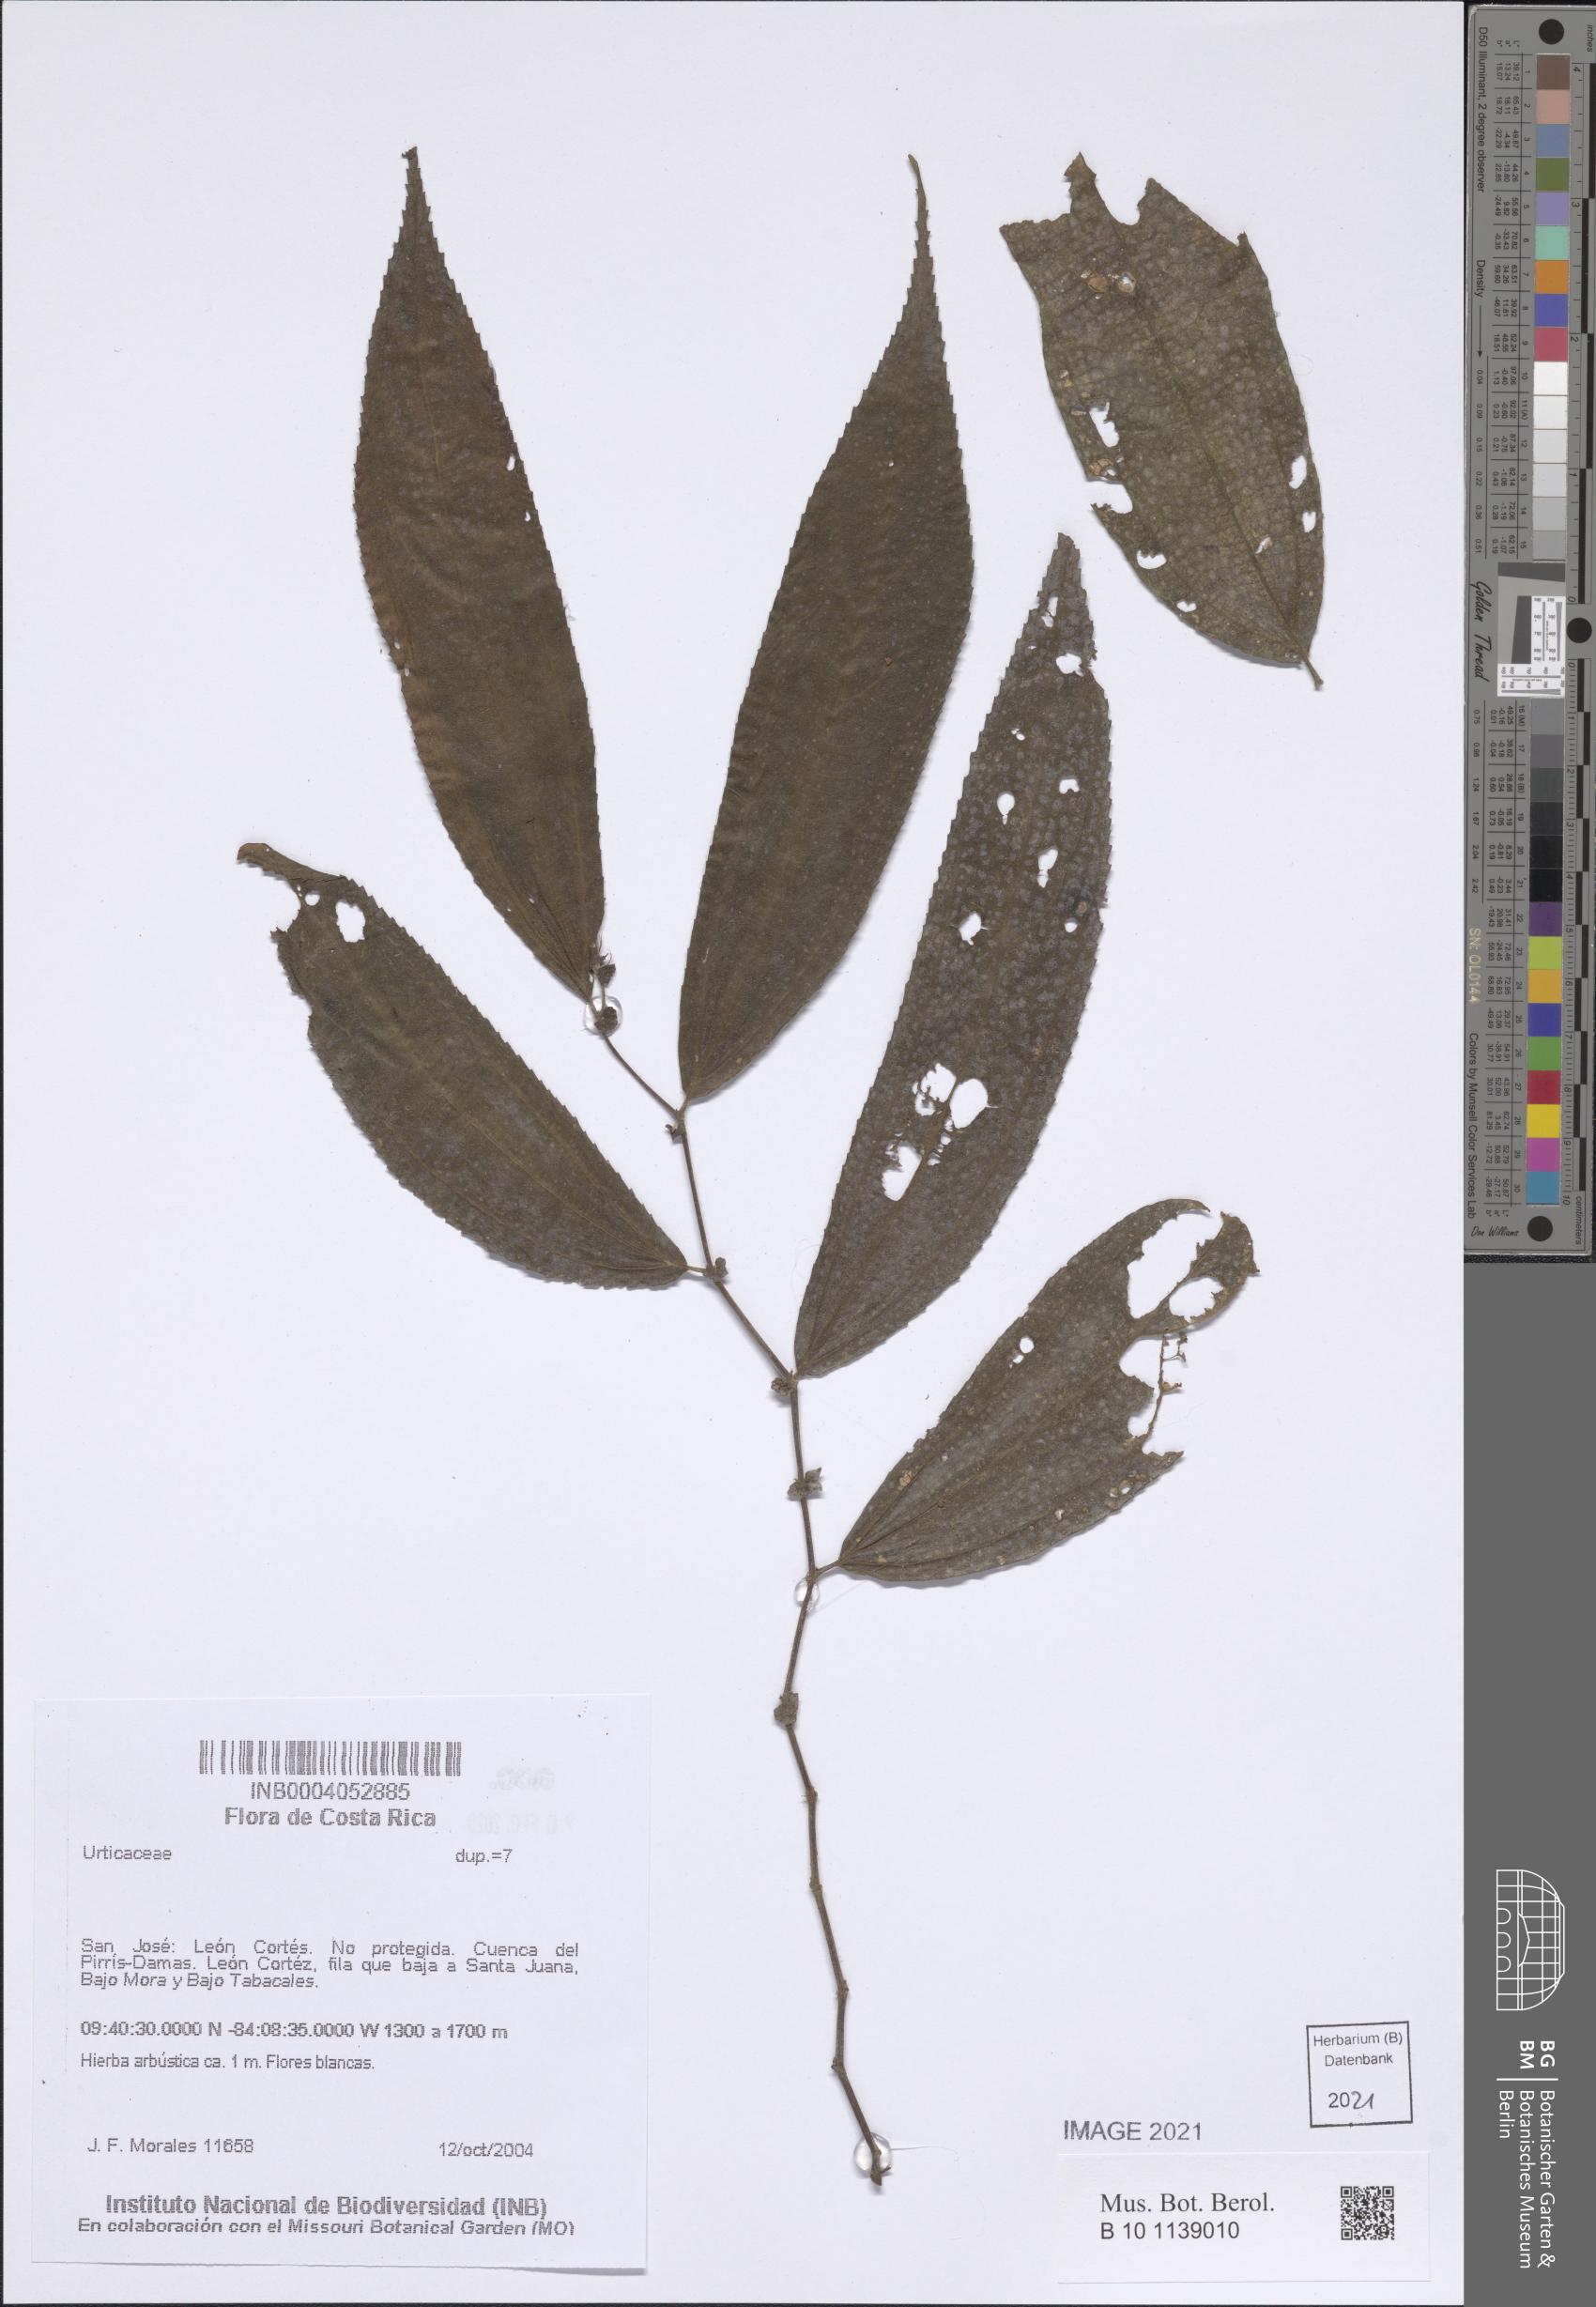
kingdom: Plantae
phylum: Tracheophyta
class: Magnoliopsida
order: Rosales
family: Urticaceae
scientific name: Urticaceae
